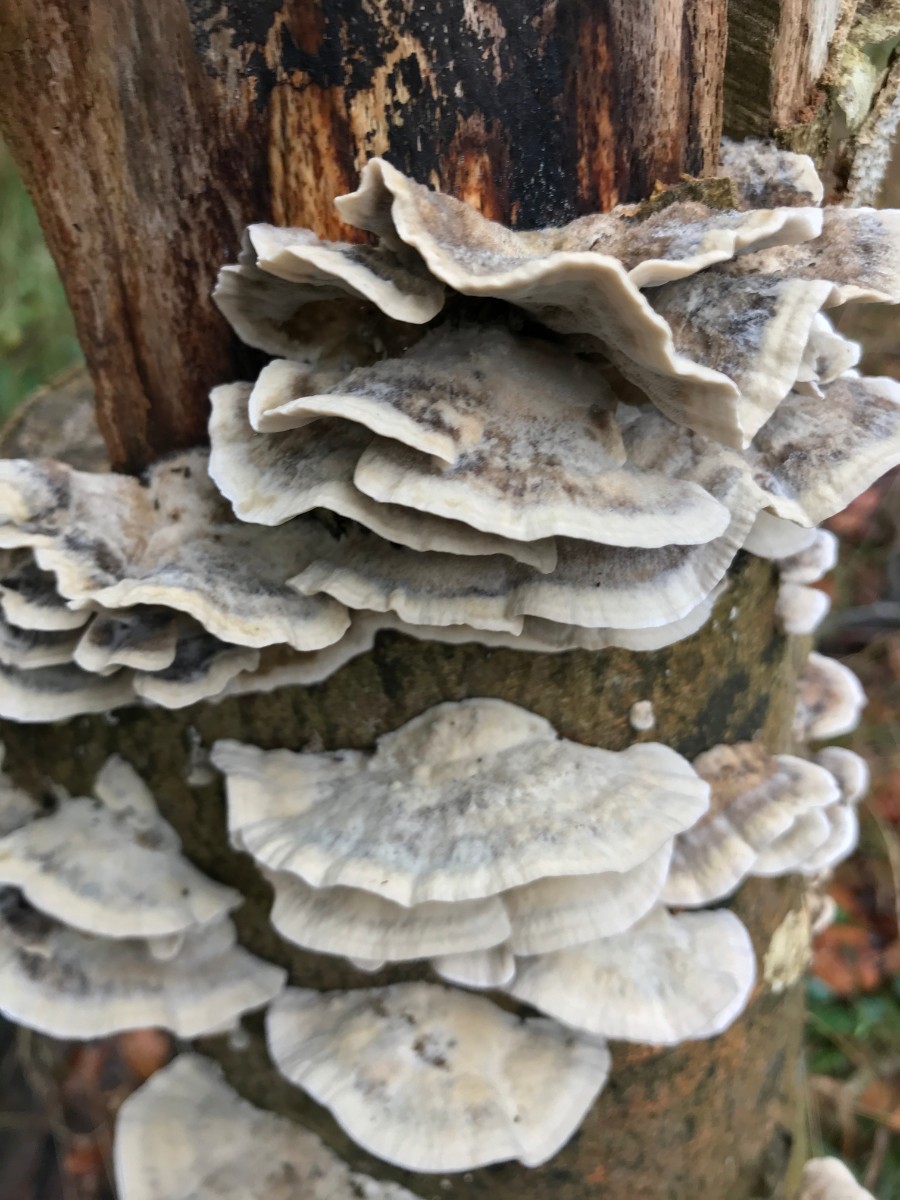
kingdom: Fungi
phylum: Basidiomycota
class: Agaricomycetes
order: Polyporales
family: Phanerochaetaceae
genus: Bjerkandera
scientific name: Bjerkandera adusta
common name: sveden sodporesvamp
